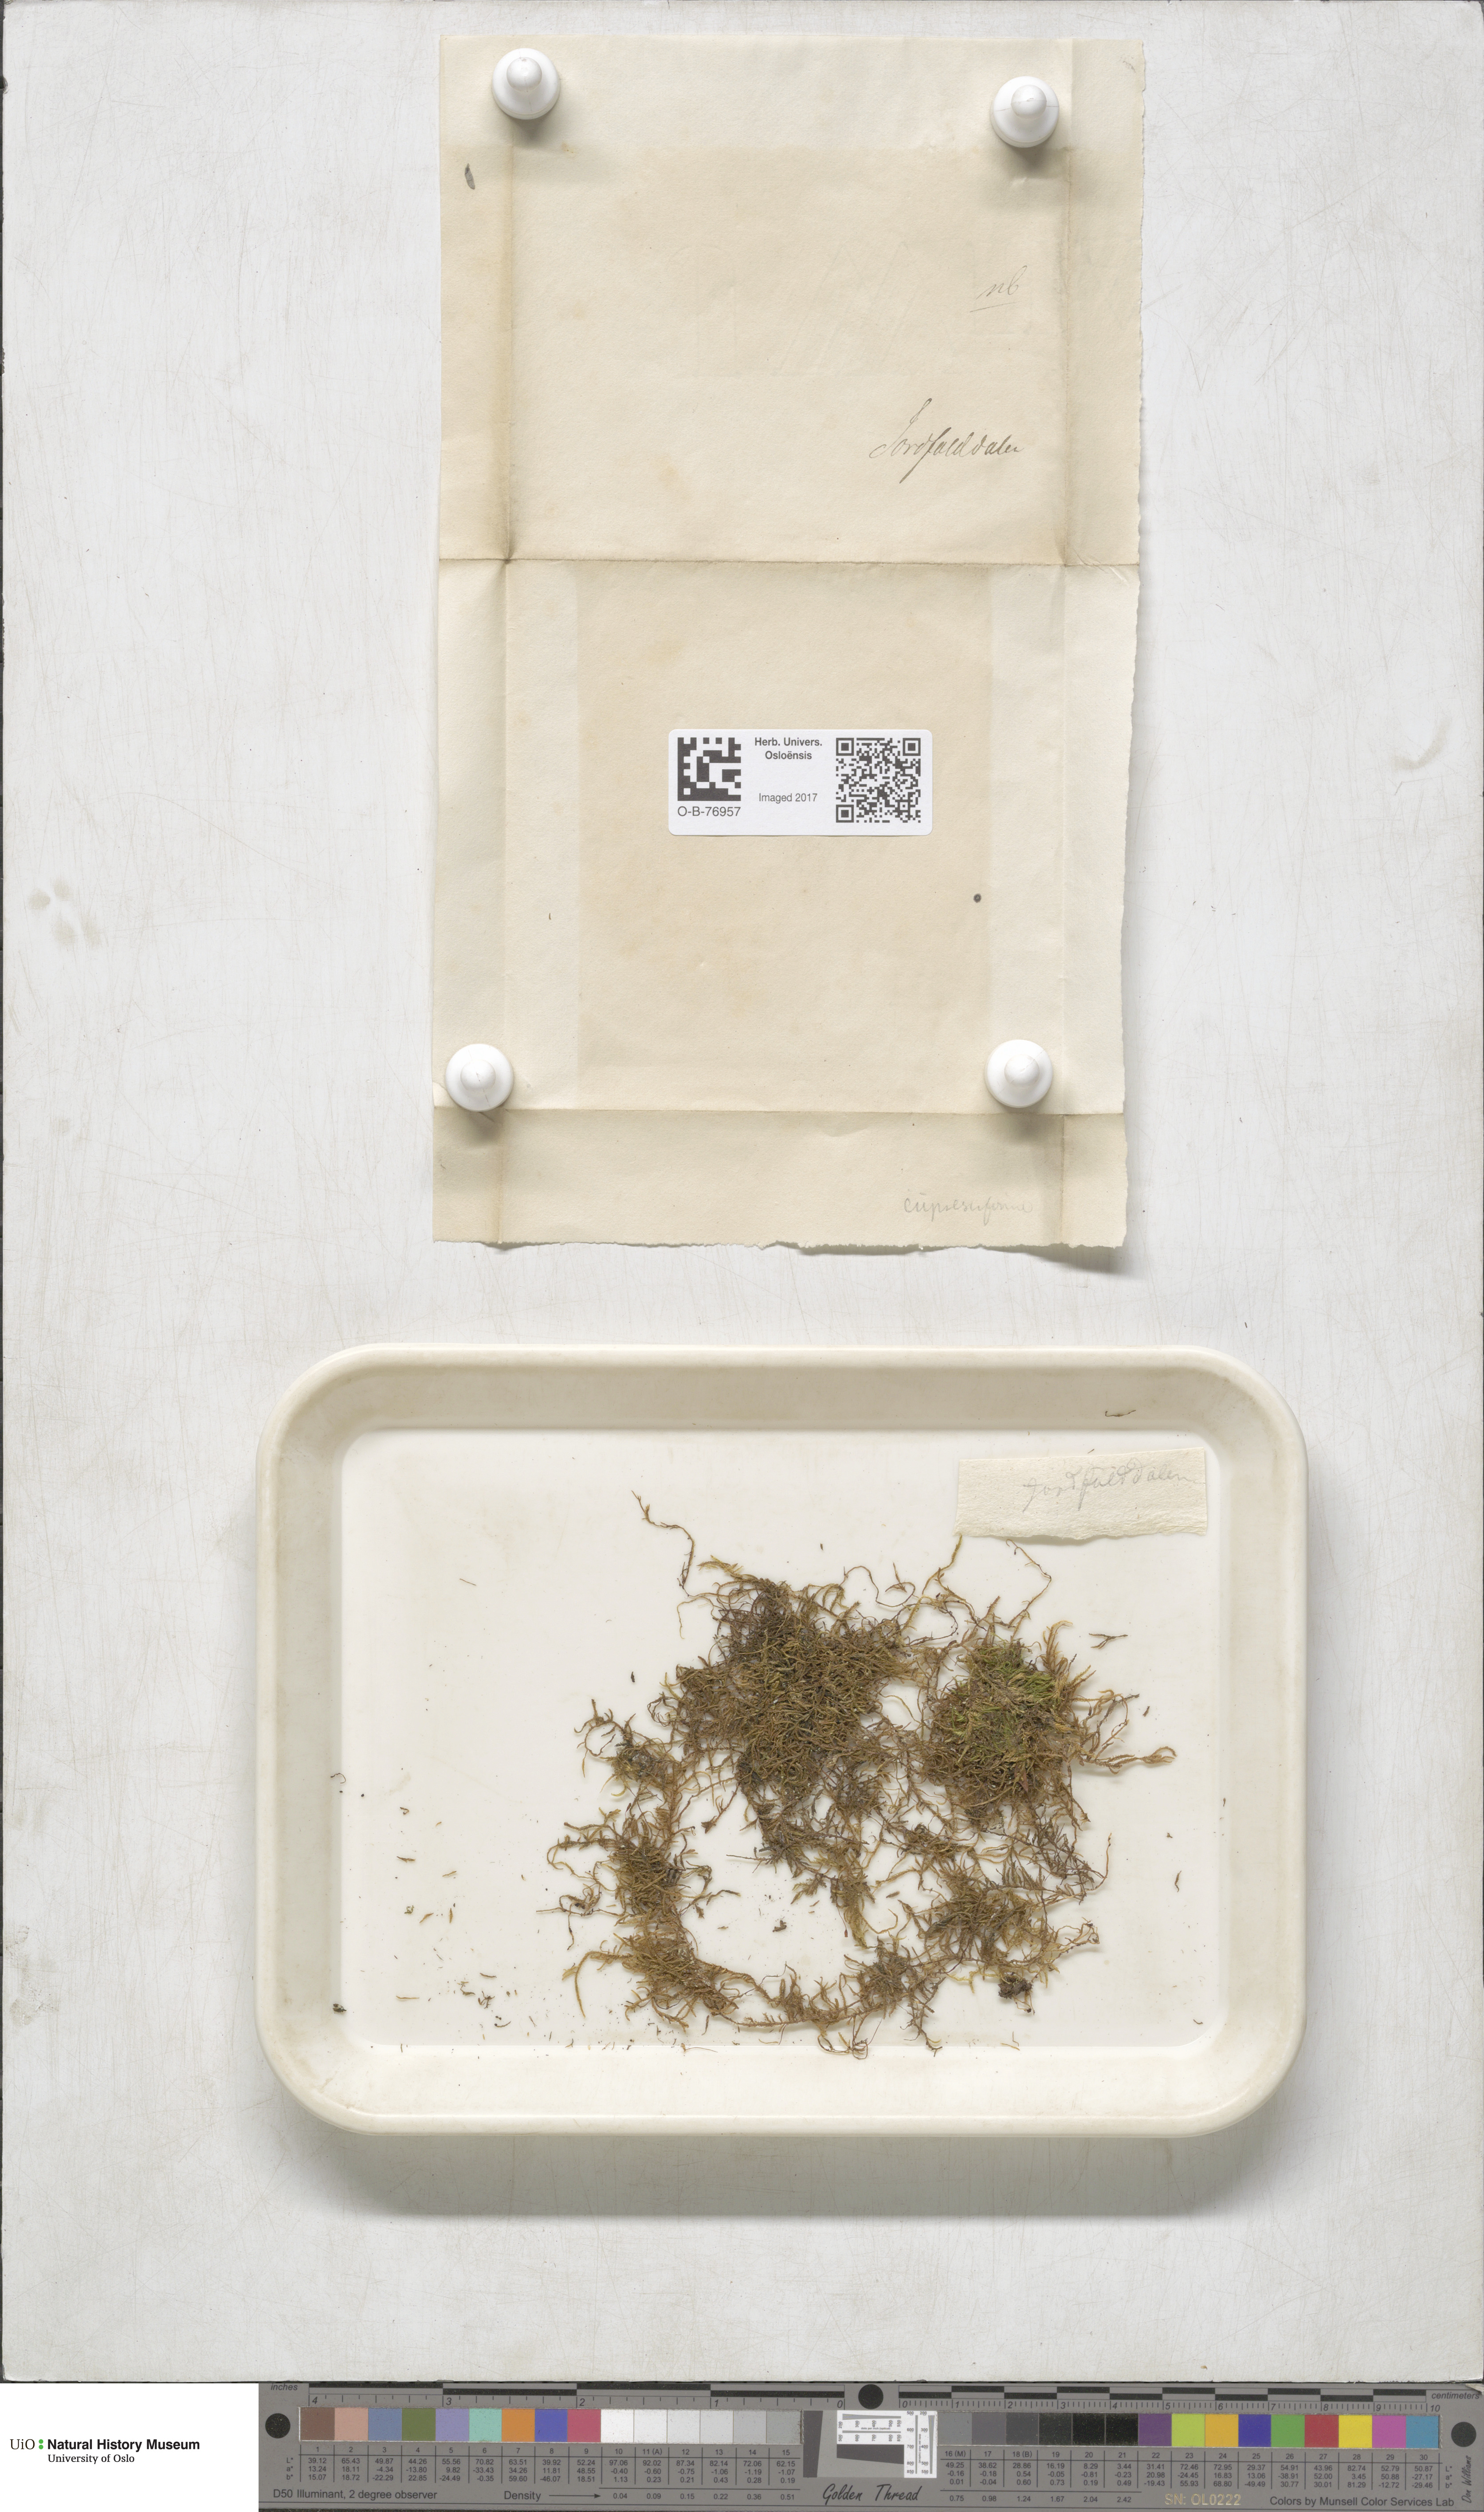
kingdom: Plantae
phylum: Bryophyta
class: Bryopsida
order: Hypnales
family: Hypnaceae
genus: Hypnum
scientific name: Hypnum cupressiforme
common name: Cypress-leaved plait-moss
